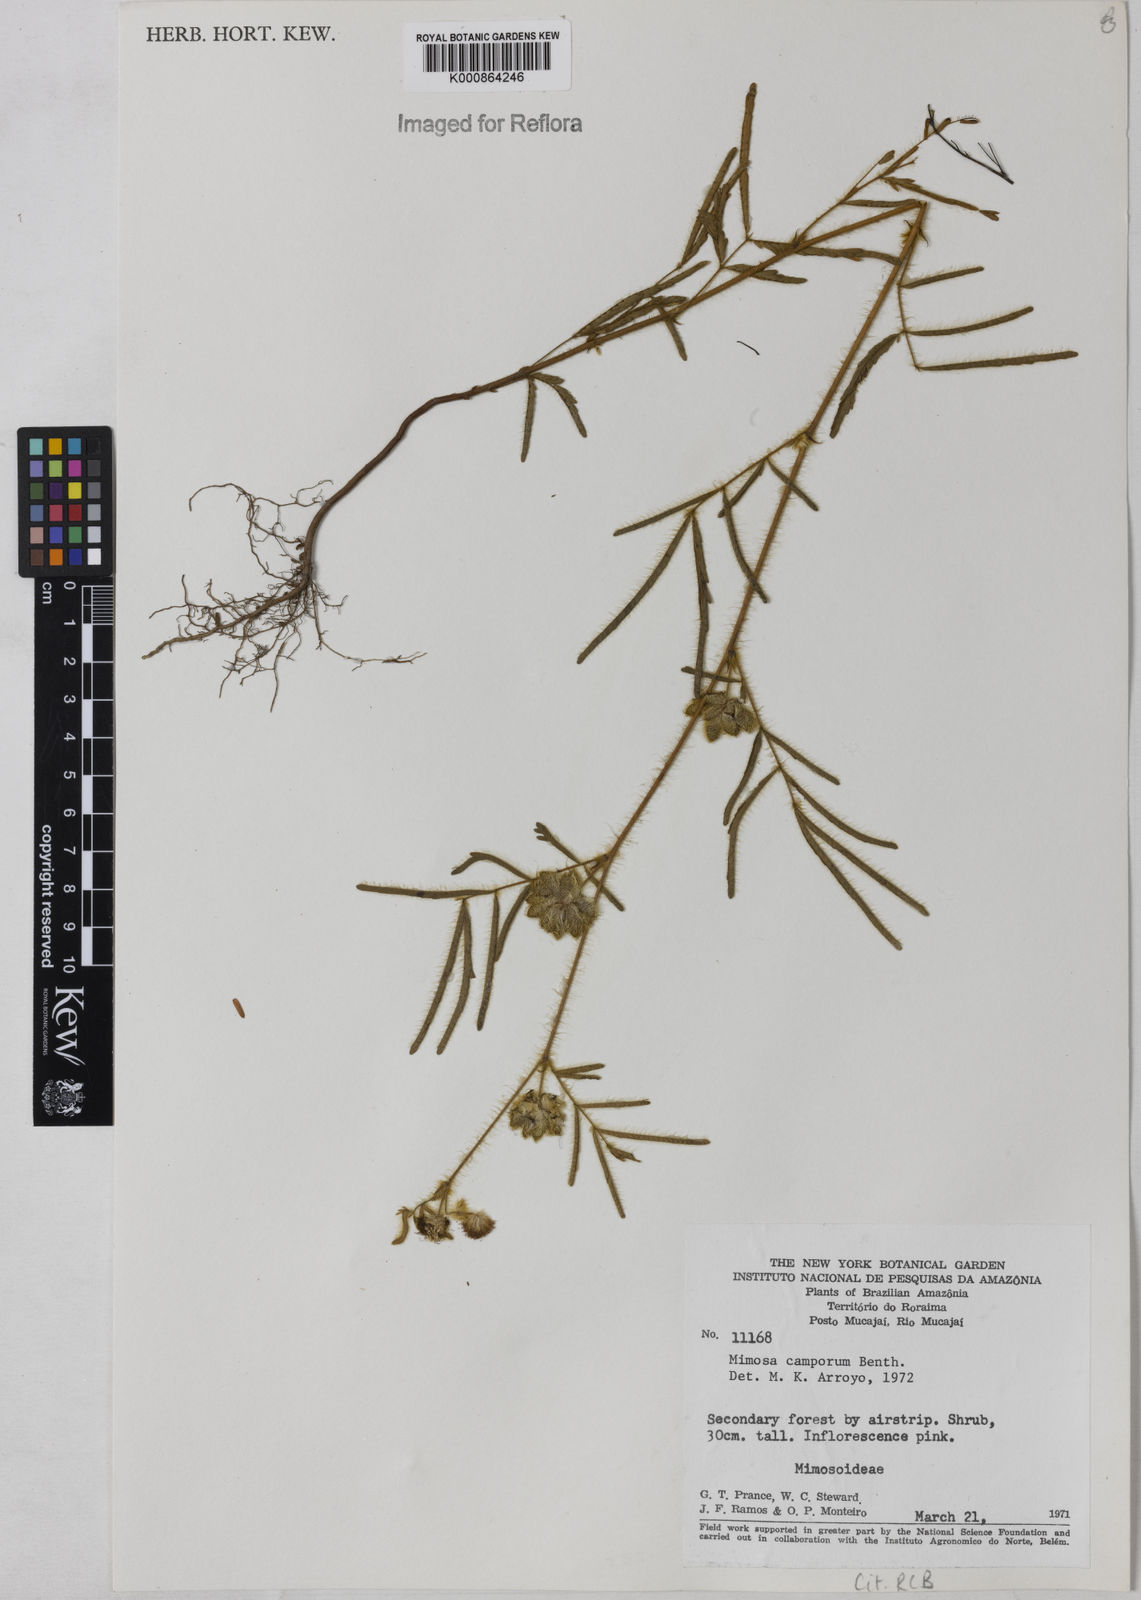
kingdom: Plantae
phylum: Tracheophyta
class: Magnoliopsida
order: Fabales
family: Fabaceae
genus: Mimosa
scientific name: Mimosa camporum
